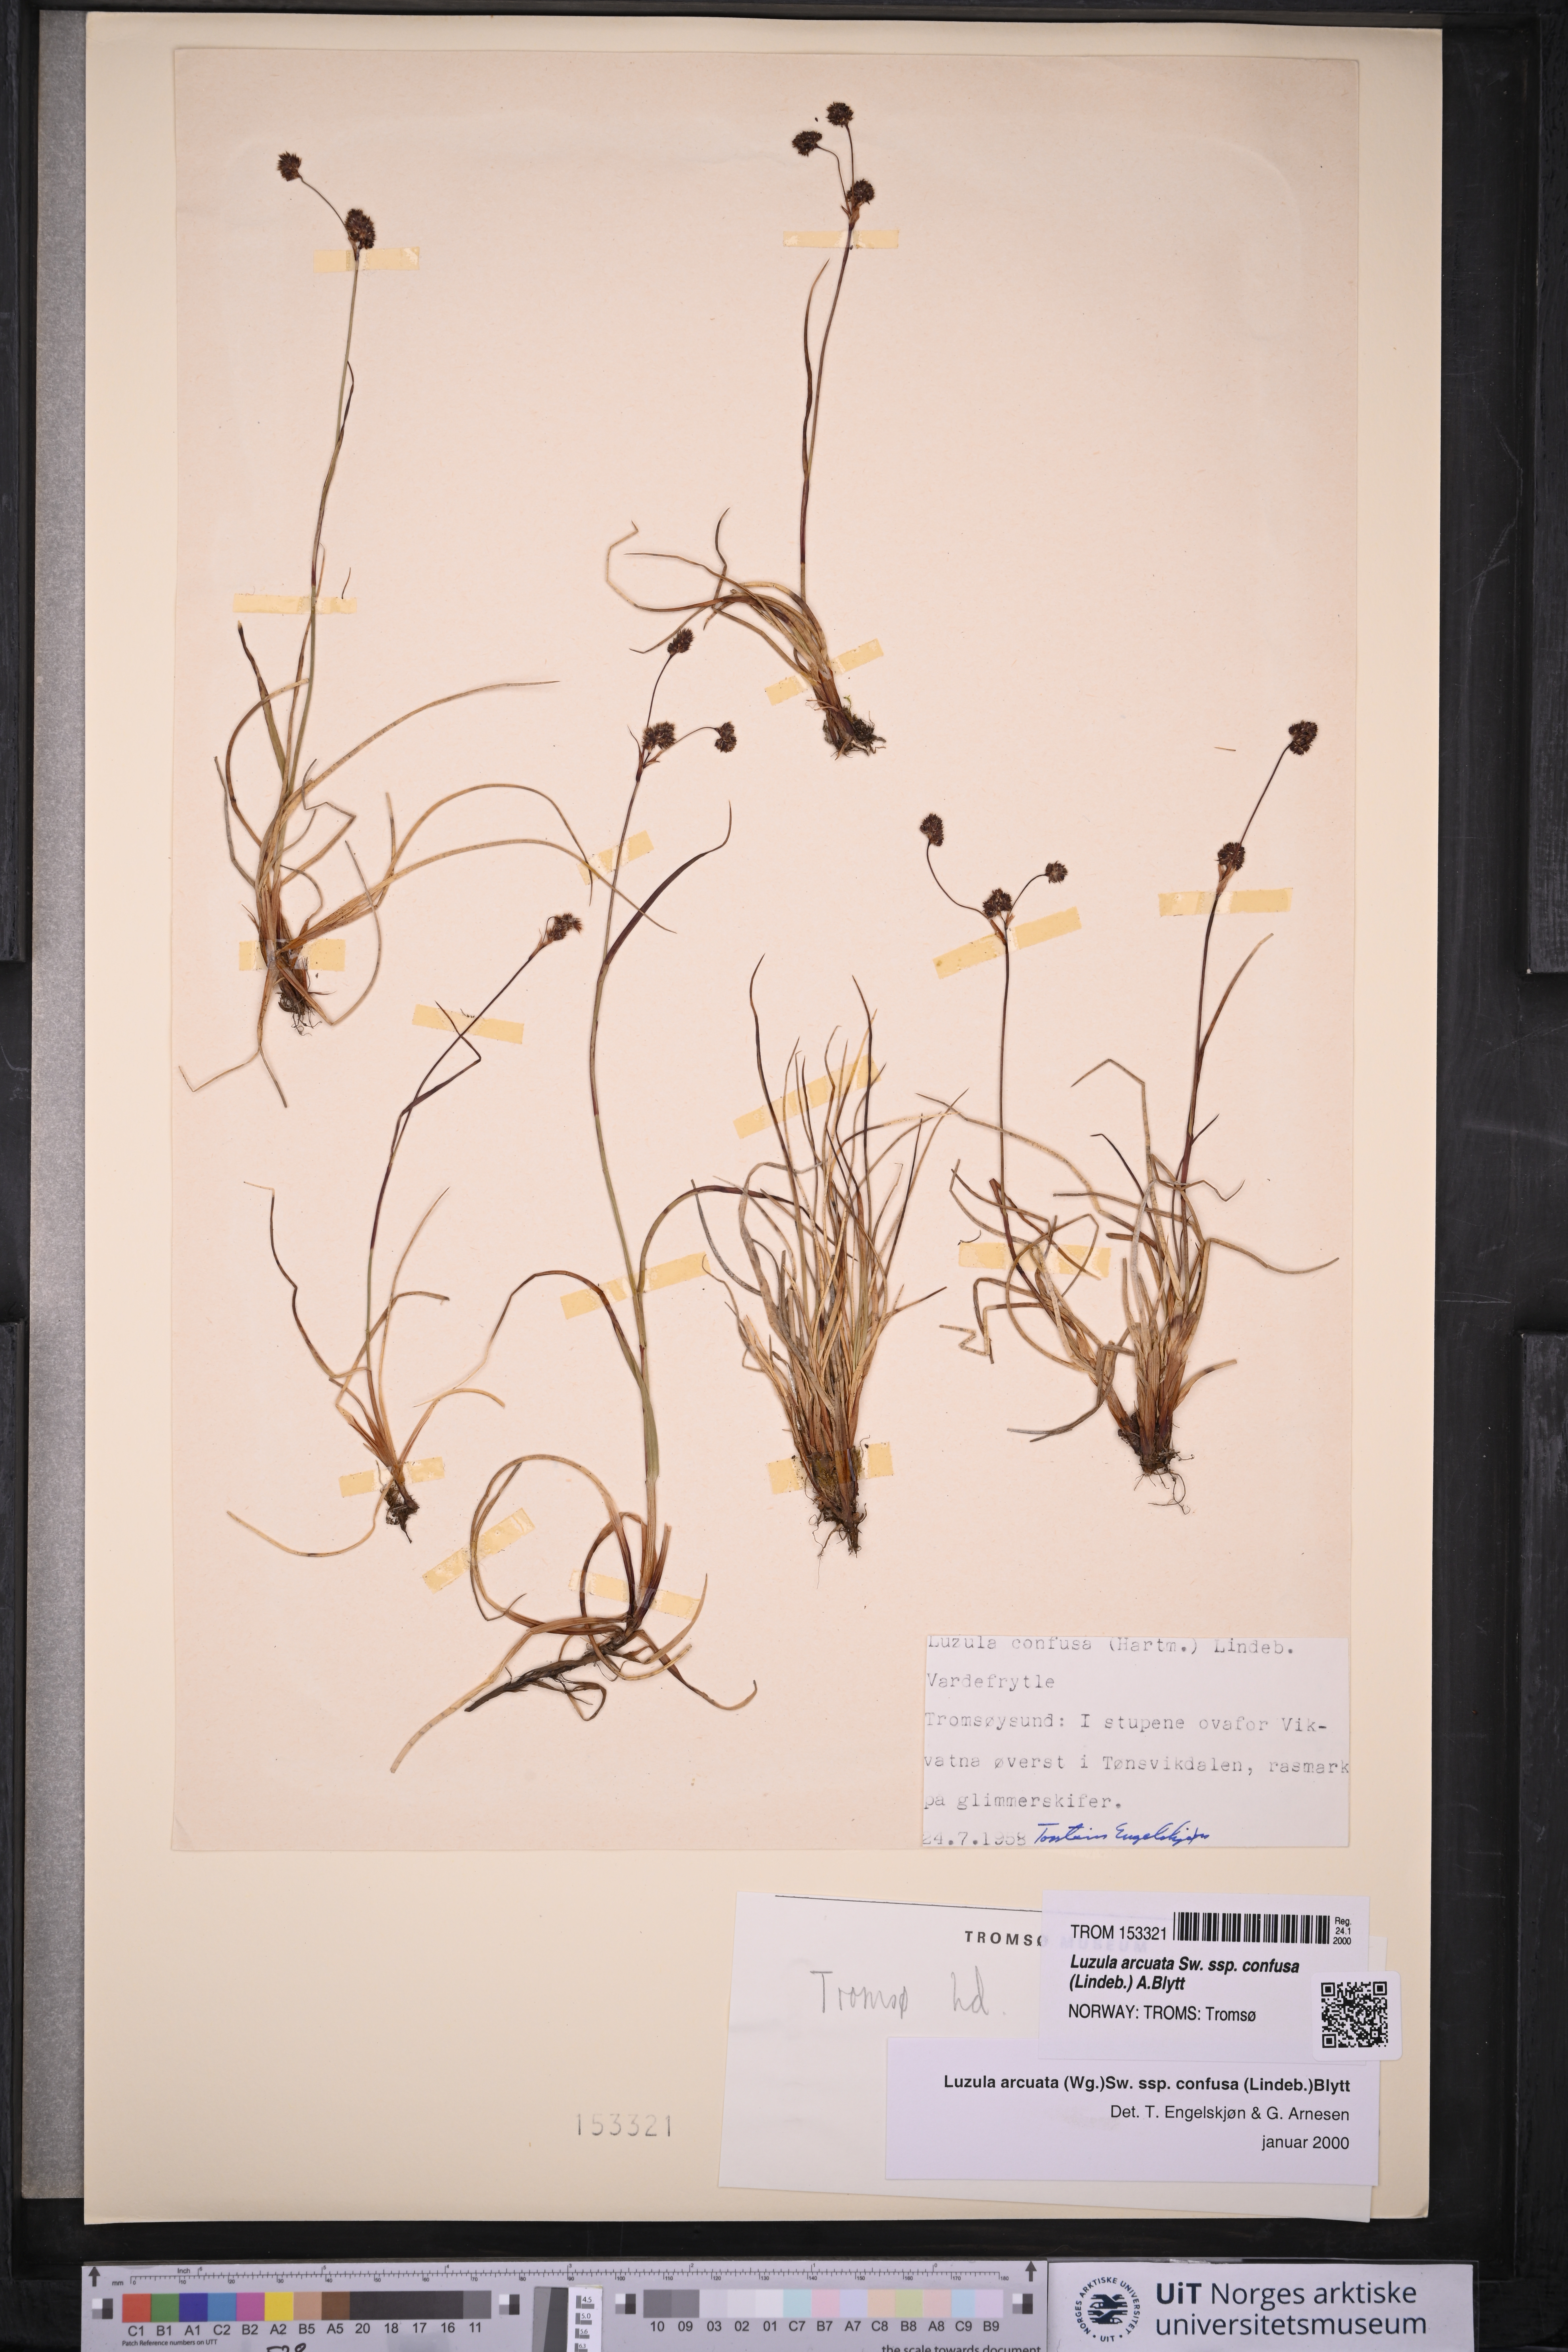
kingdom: Plantae
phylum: Tracheophyta
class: Liliopsida
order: Poales
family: Juncaceae
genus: Luzula
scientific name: Luzula confusa
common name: Northern wood rush
